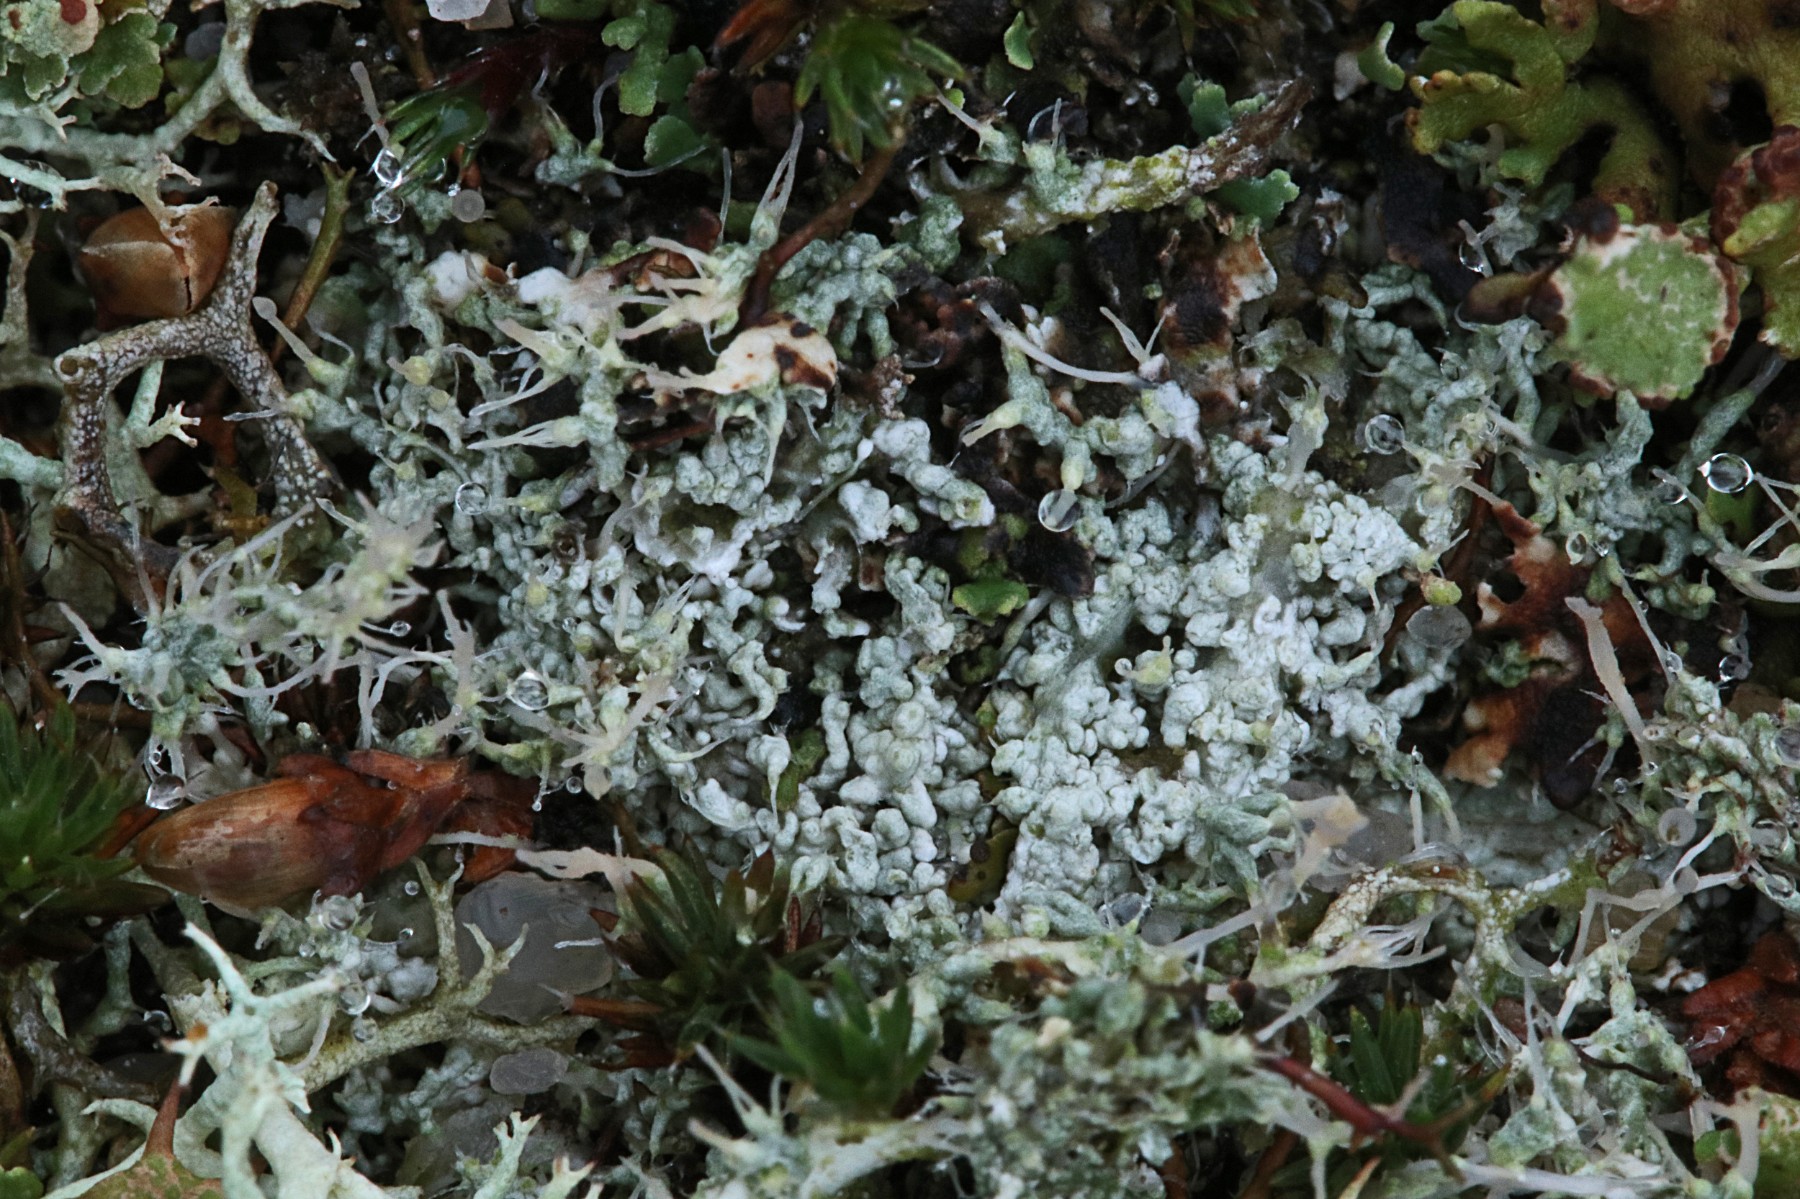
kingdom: Fungi
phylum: Ascomycota
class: Lecanoromycetes
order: Pertusariales
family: Ochrolechiaceae
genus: Ochrolechia
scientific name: Ochrolechia frigida
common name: fjeld-blegskivelav
